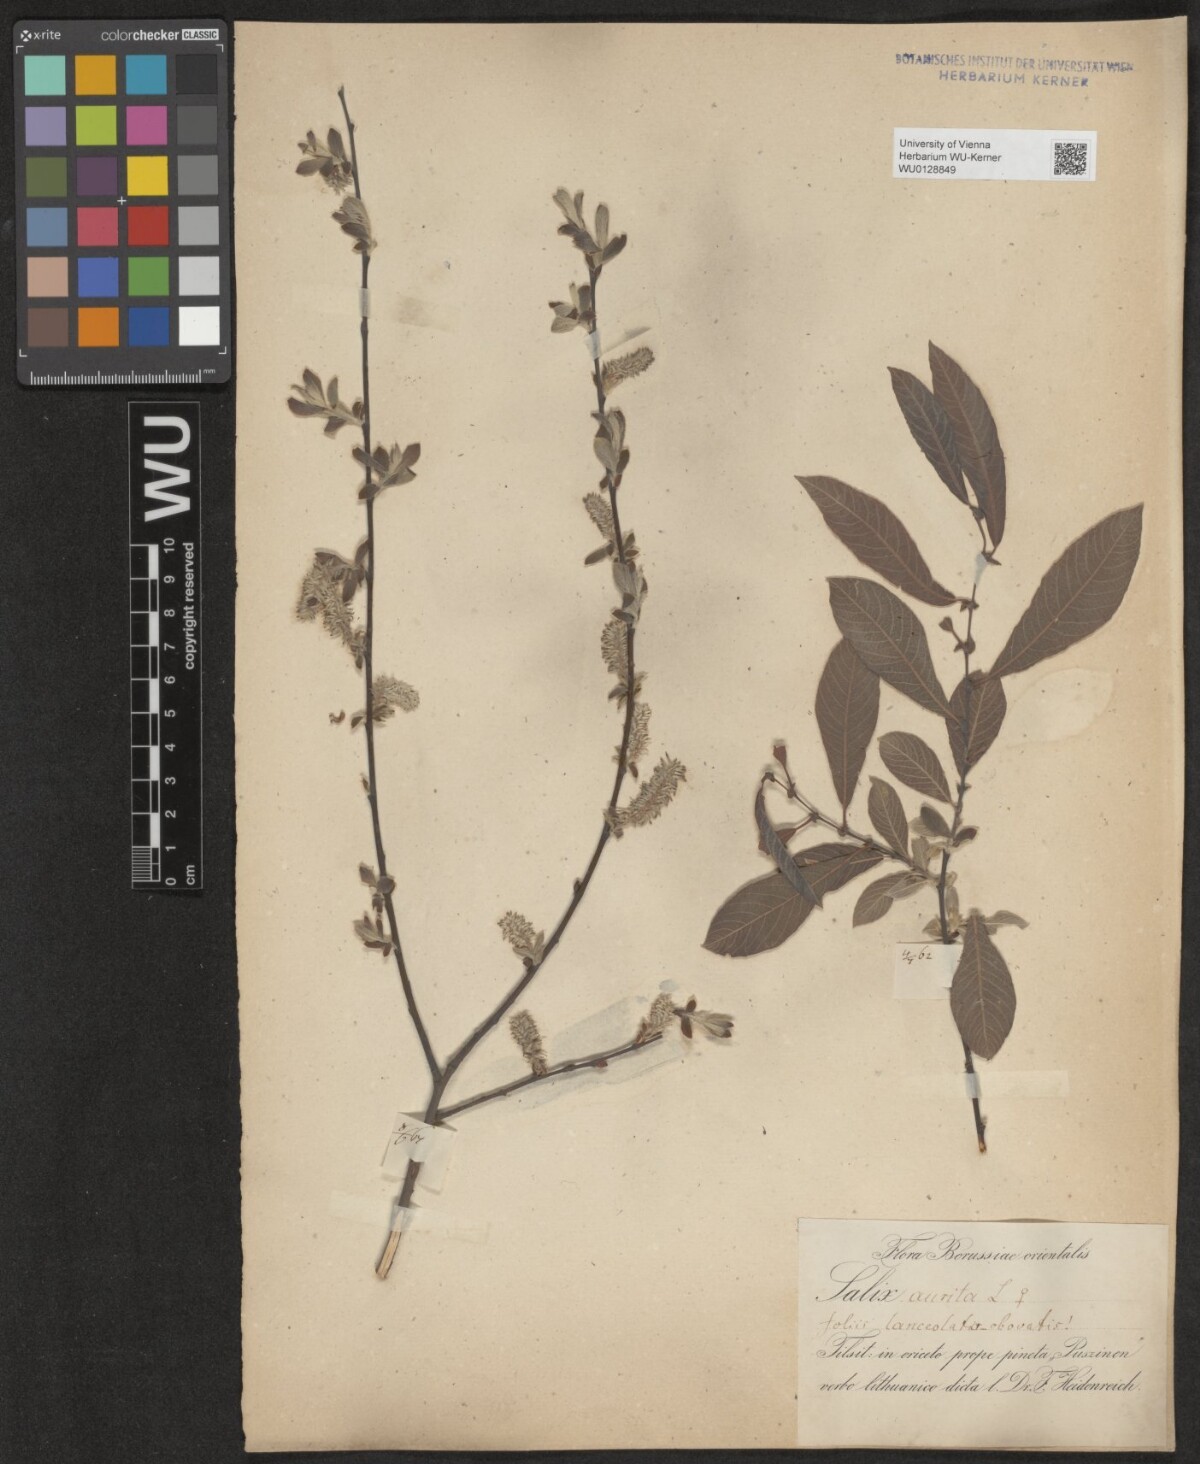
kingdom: Plantae
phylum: Tracheophyta
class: Magnoliopsida
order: Malpighiales
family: Salicaceae
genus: Salix
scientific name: Salix aurita
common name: Eared willow
